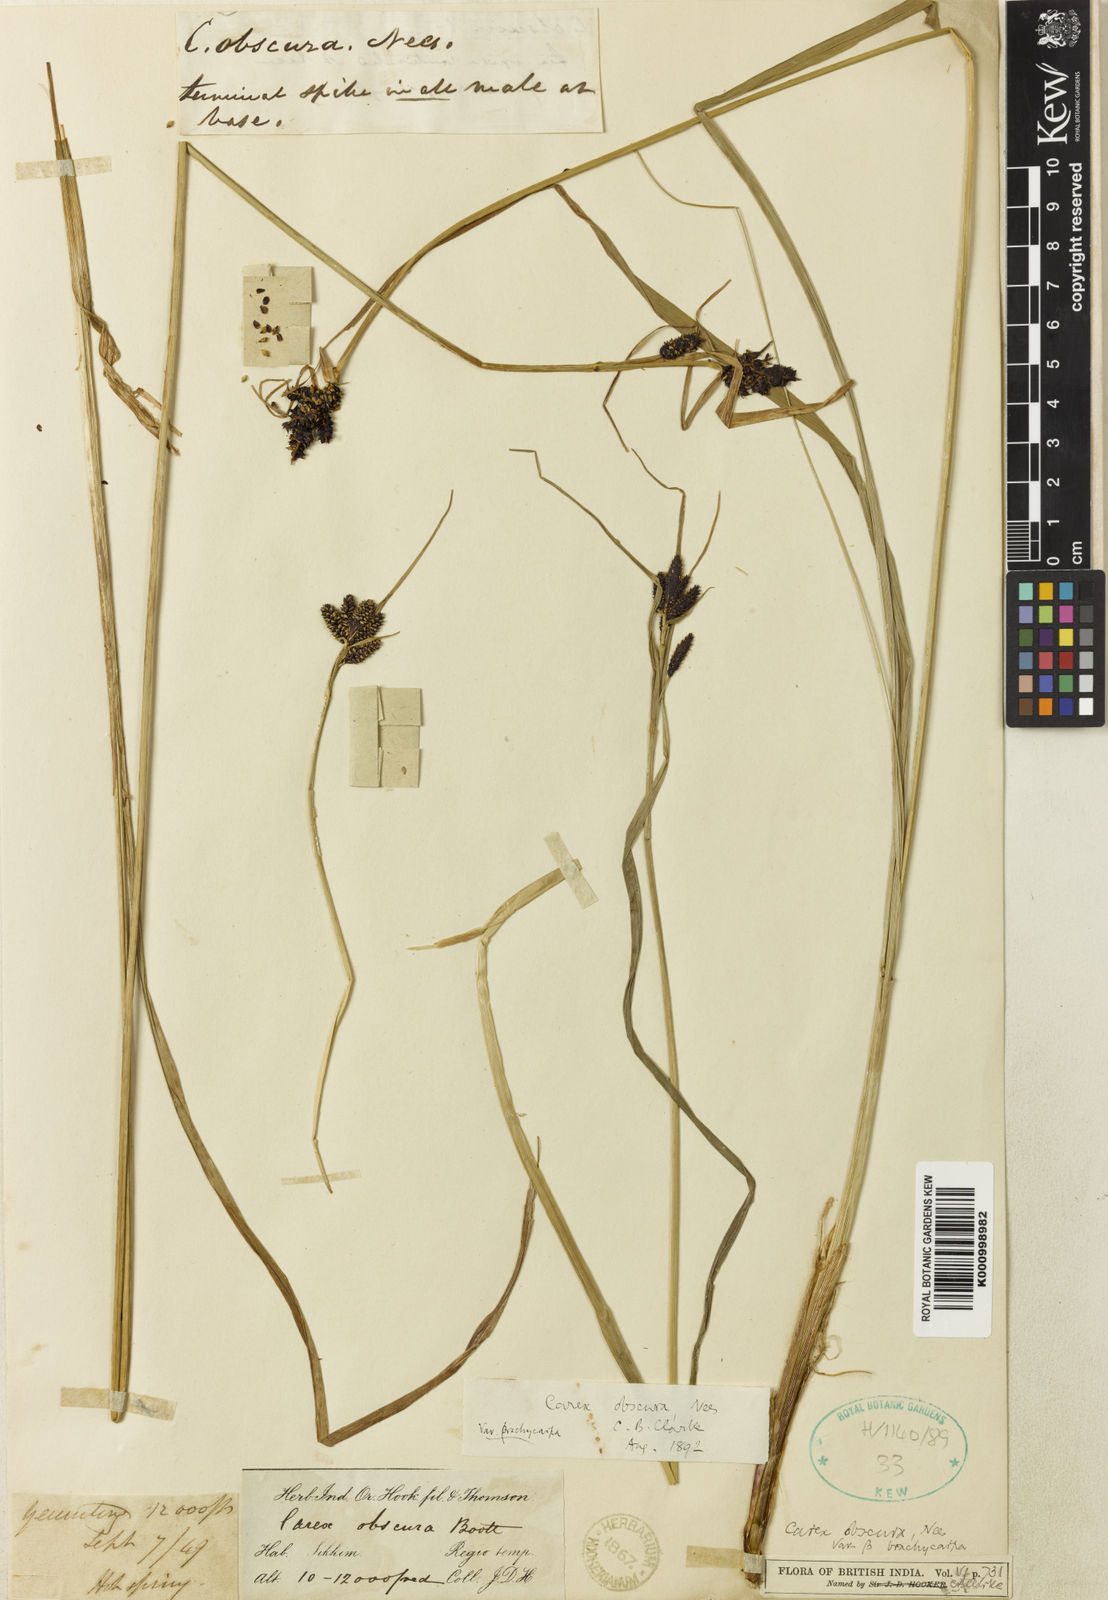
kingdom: Plantae
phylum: Tracheophyta
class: Liliopsida
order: Poales
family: Cyperaceae
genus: Carex
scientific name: Carex obscura
